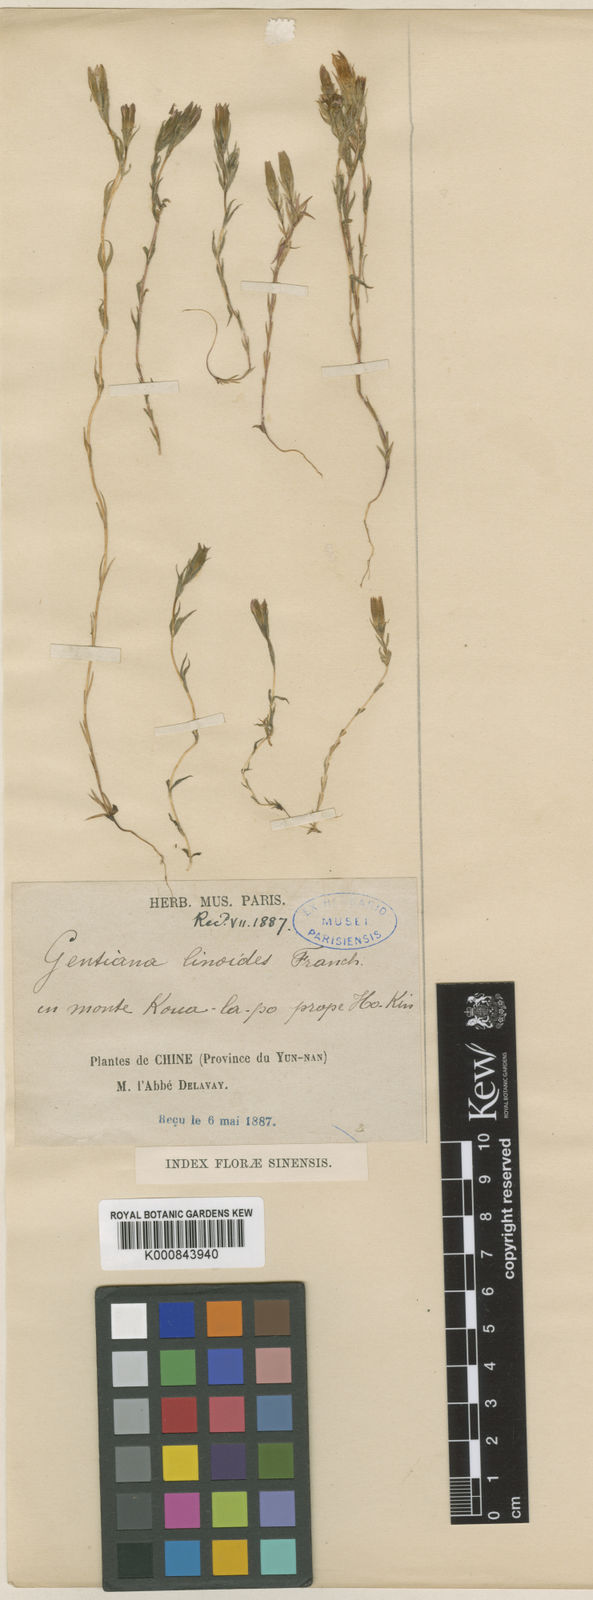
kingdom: Plantae
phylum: Tracheophyta
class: Magnoliopsida
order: Gentianales
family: Gentianaceae
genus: Gentiana
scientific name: Gentiana linoides
